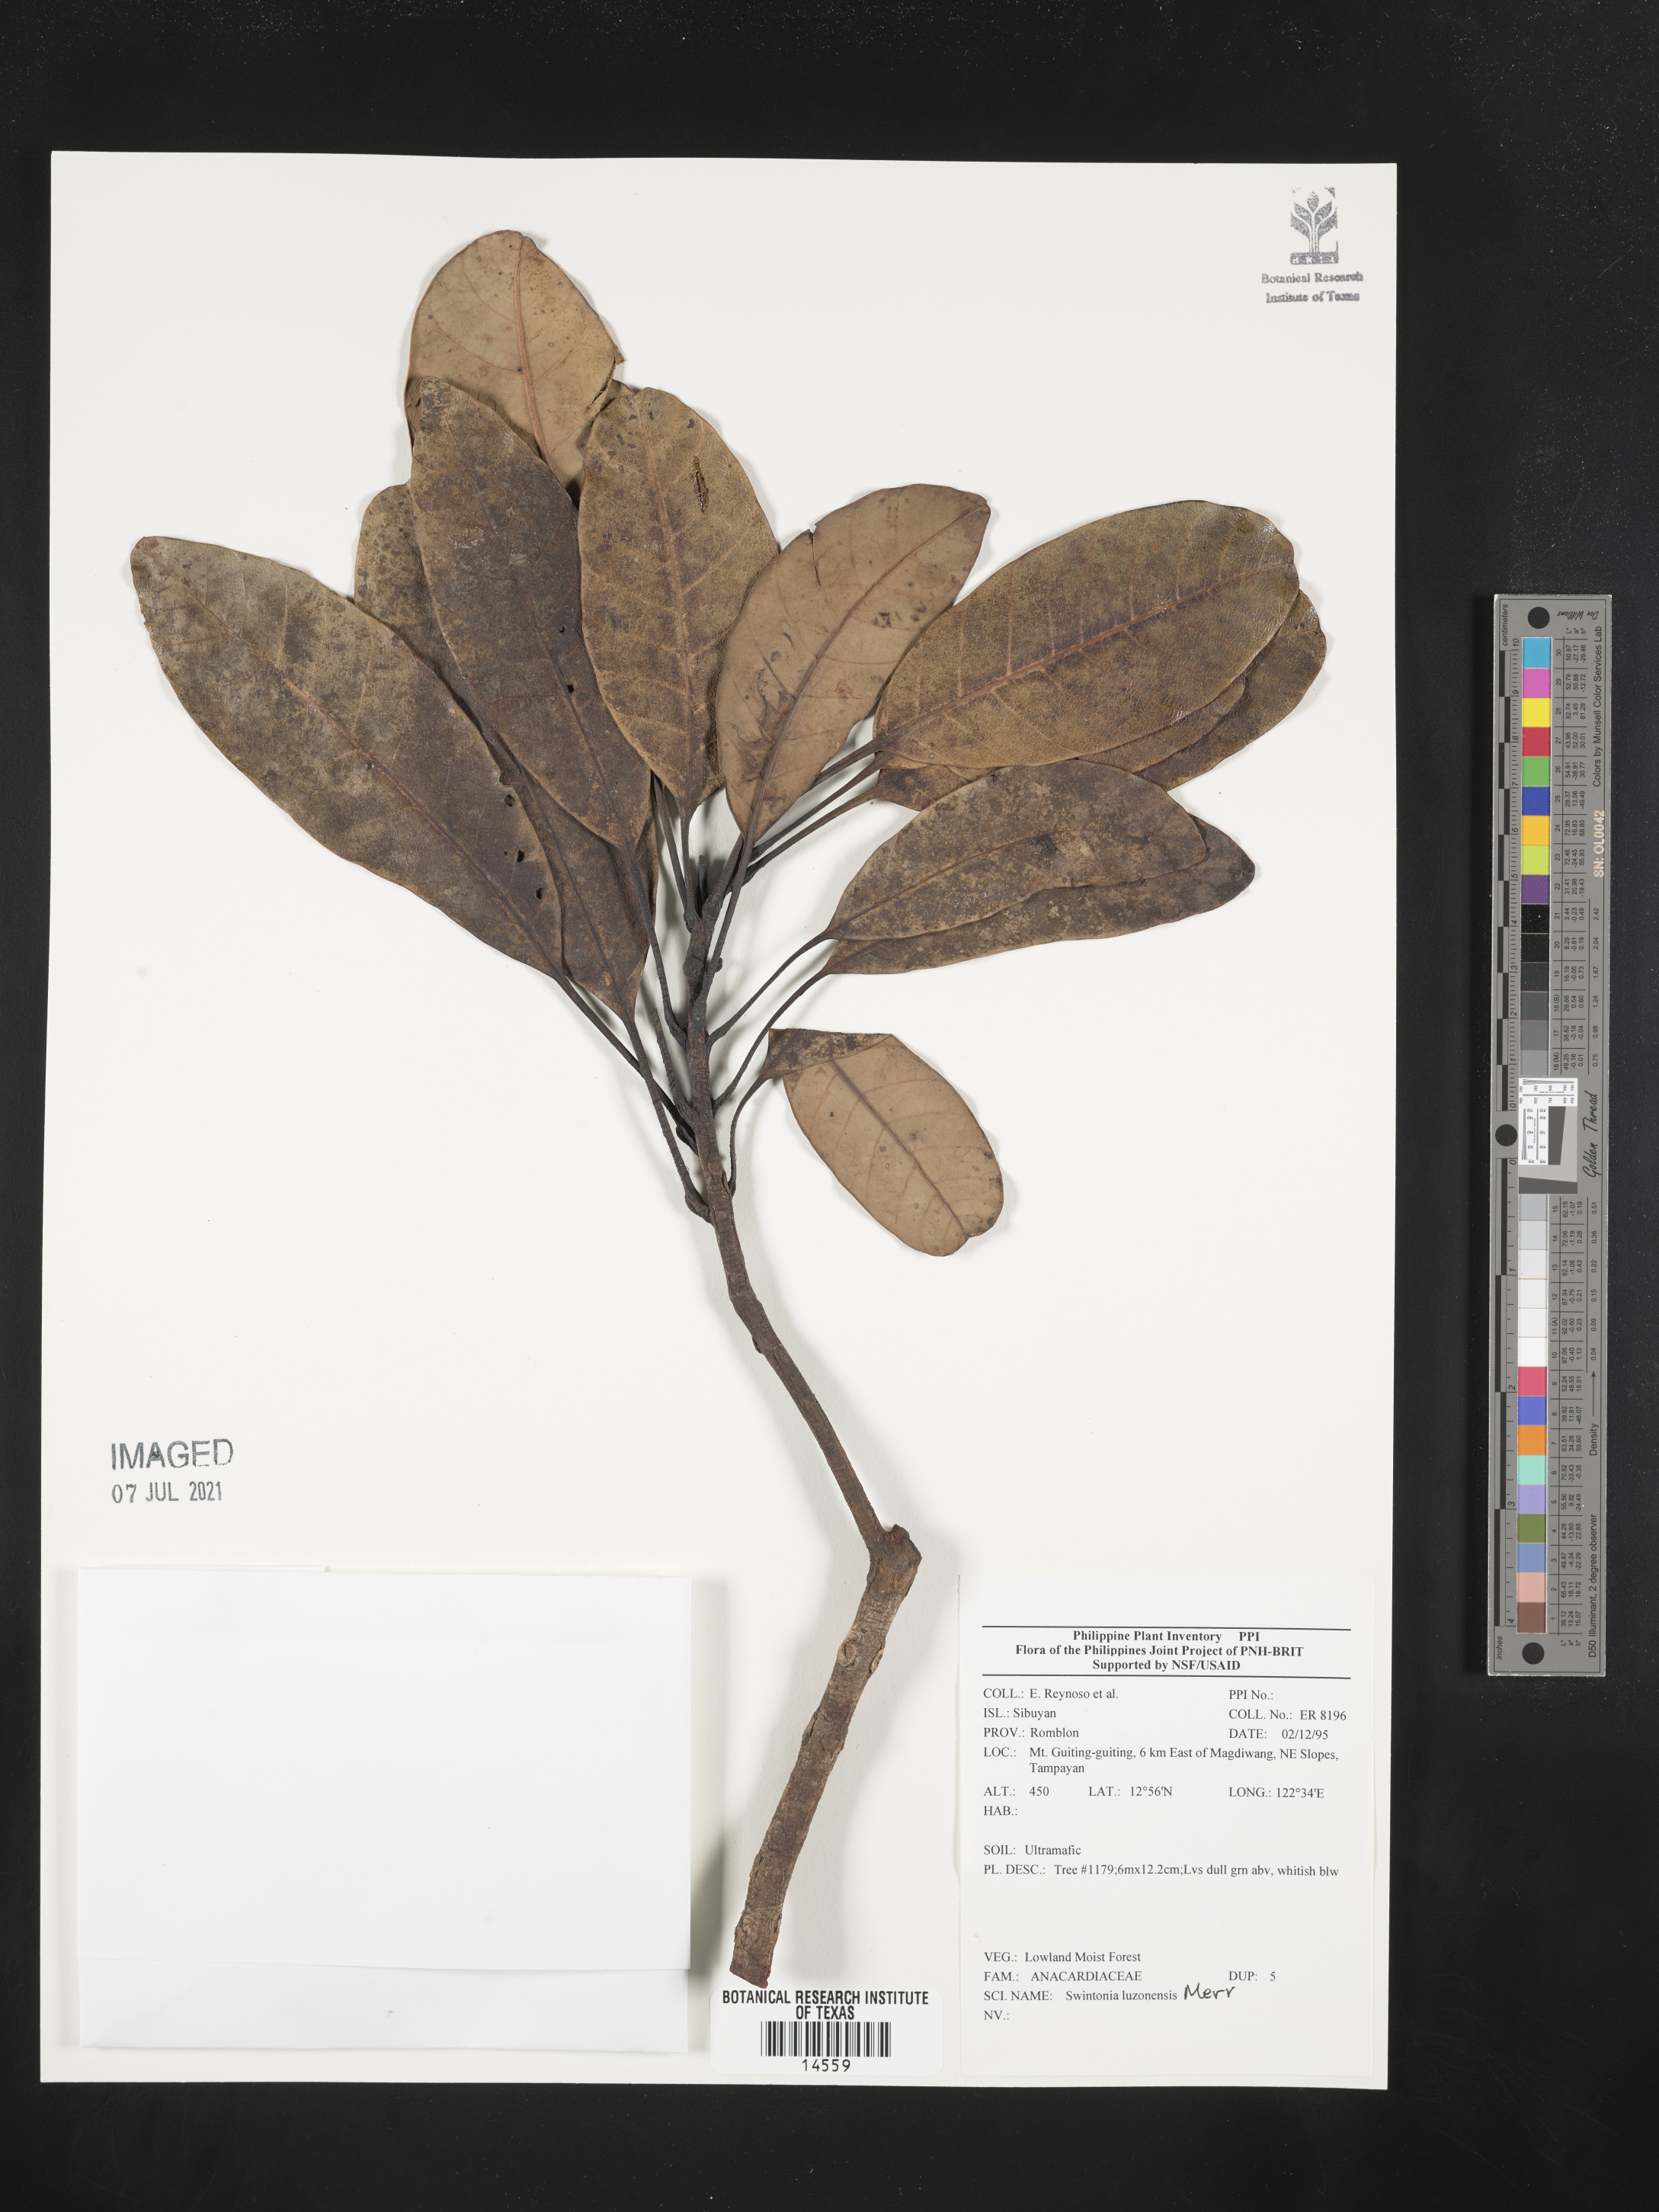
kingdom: Plantae
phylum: Tracheophyta
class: Magnoliopsida
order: Sapindales
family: Anacardiaceae
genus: Swintonia
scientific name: Swintonia acuta
